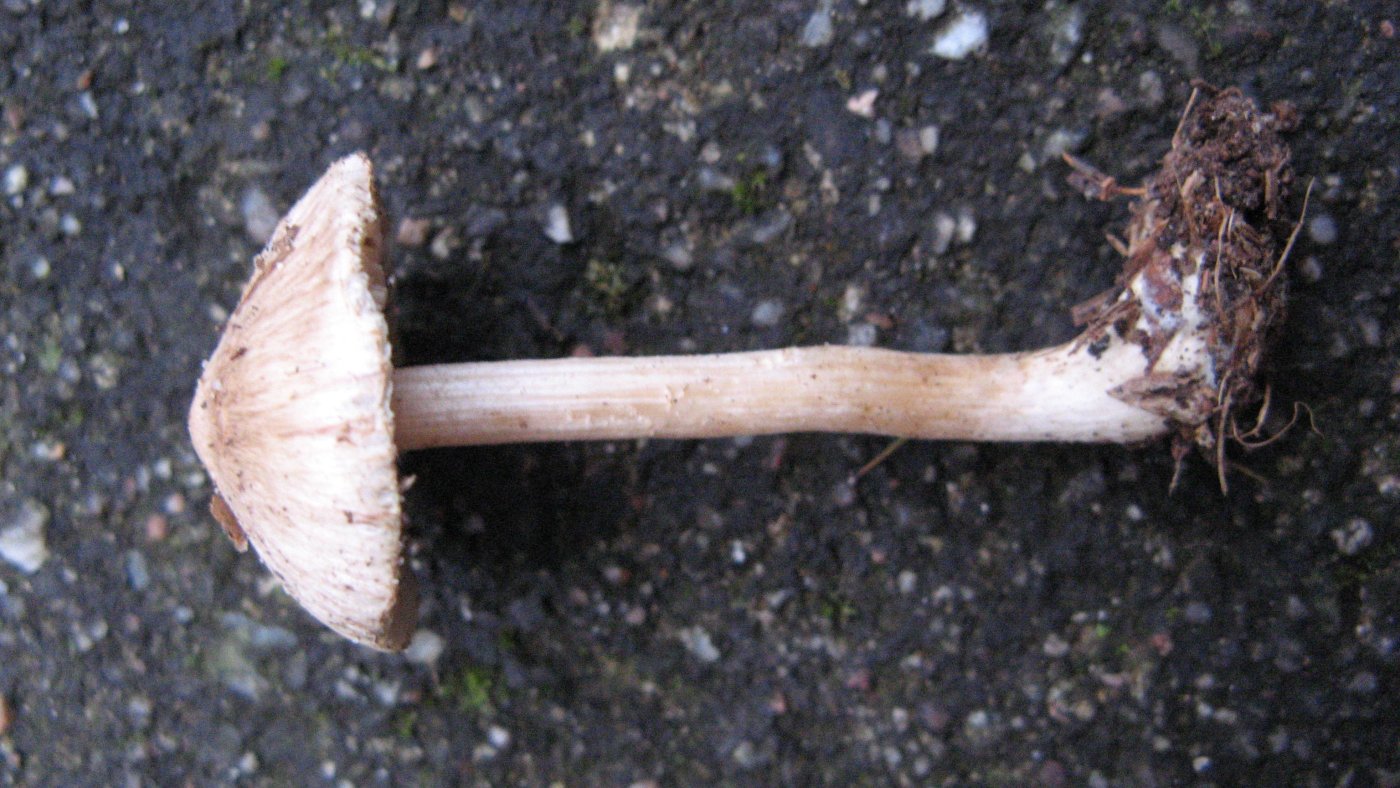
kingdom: Fungi
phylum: Basidiomycota
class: Agaricomycetes
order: Agaricales
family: Inocybaceae
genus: Inocybe
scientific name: Inocybe sindonia
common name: bleg trævlhat
